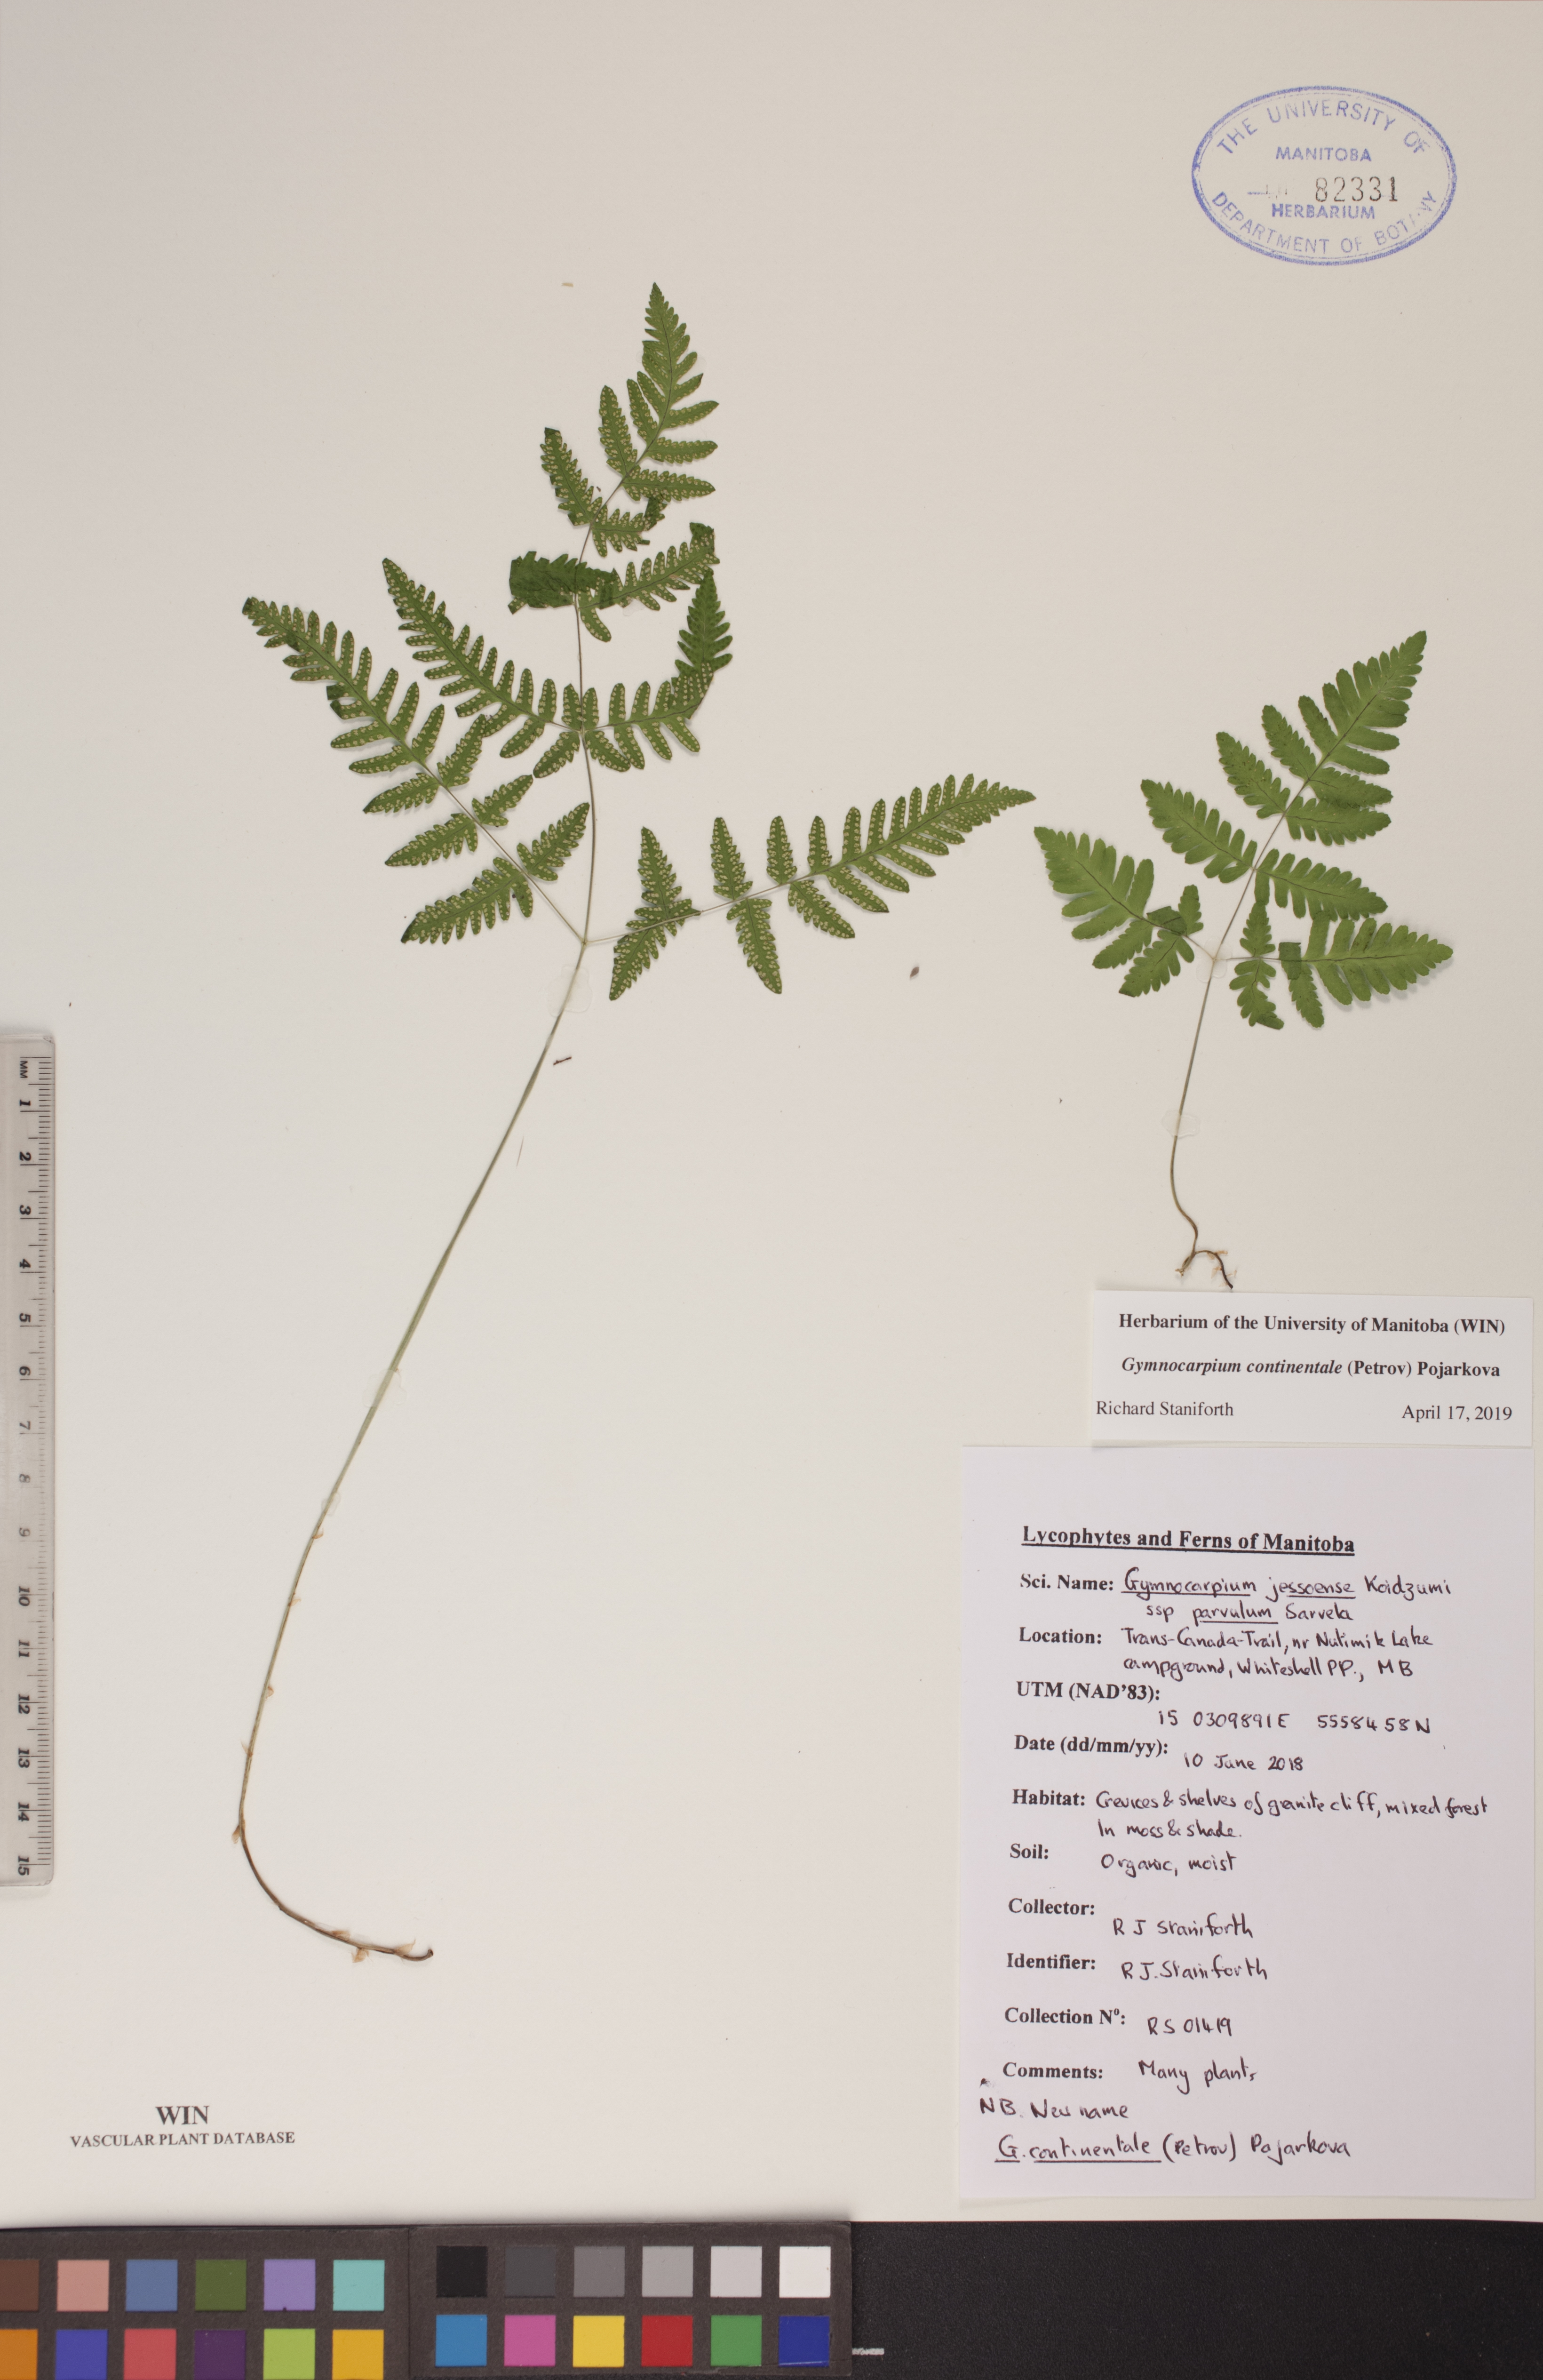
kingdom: Plantae
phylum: Tracheophyta
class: Polypodiopsida
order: Polypodiales
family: Cystopteridaceae
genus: Gymnocarpium
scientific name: Gymnocarpium continentale
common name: Asian oak fern
